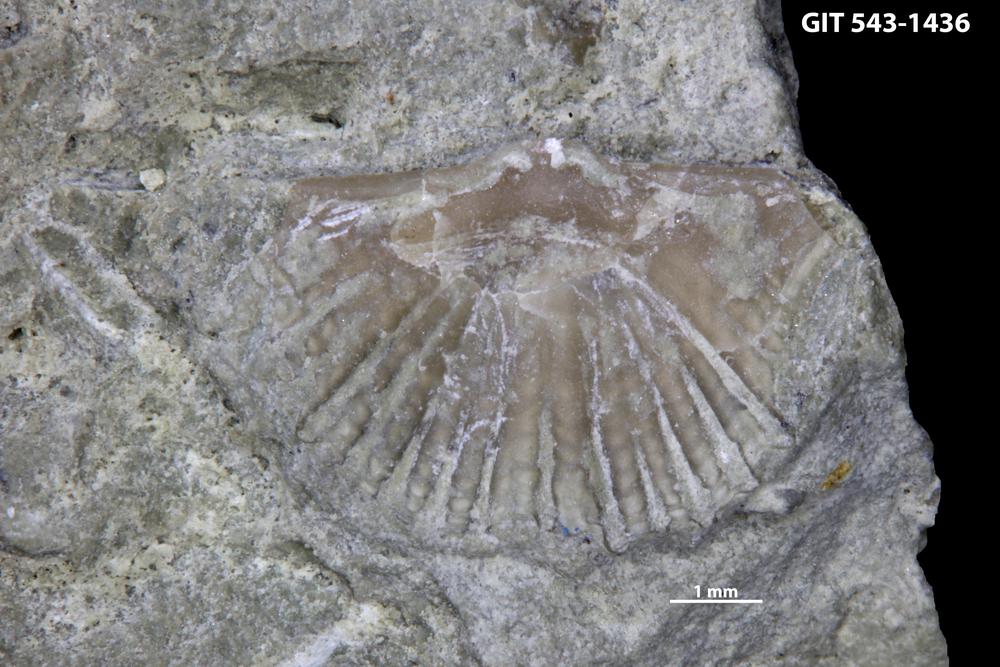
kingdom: Animalia
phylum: Brachiopoda
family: Kullervoidae
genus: Kullervo
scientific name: Kullervo lacunata
